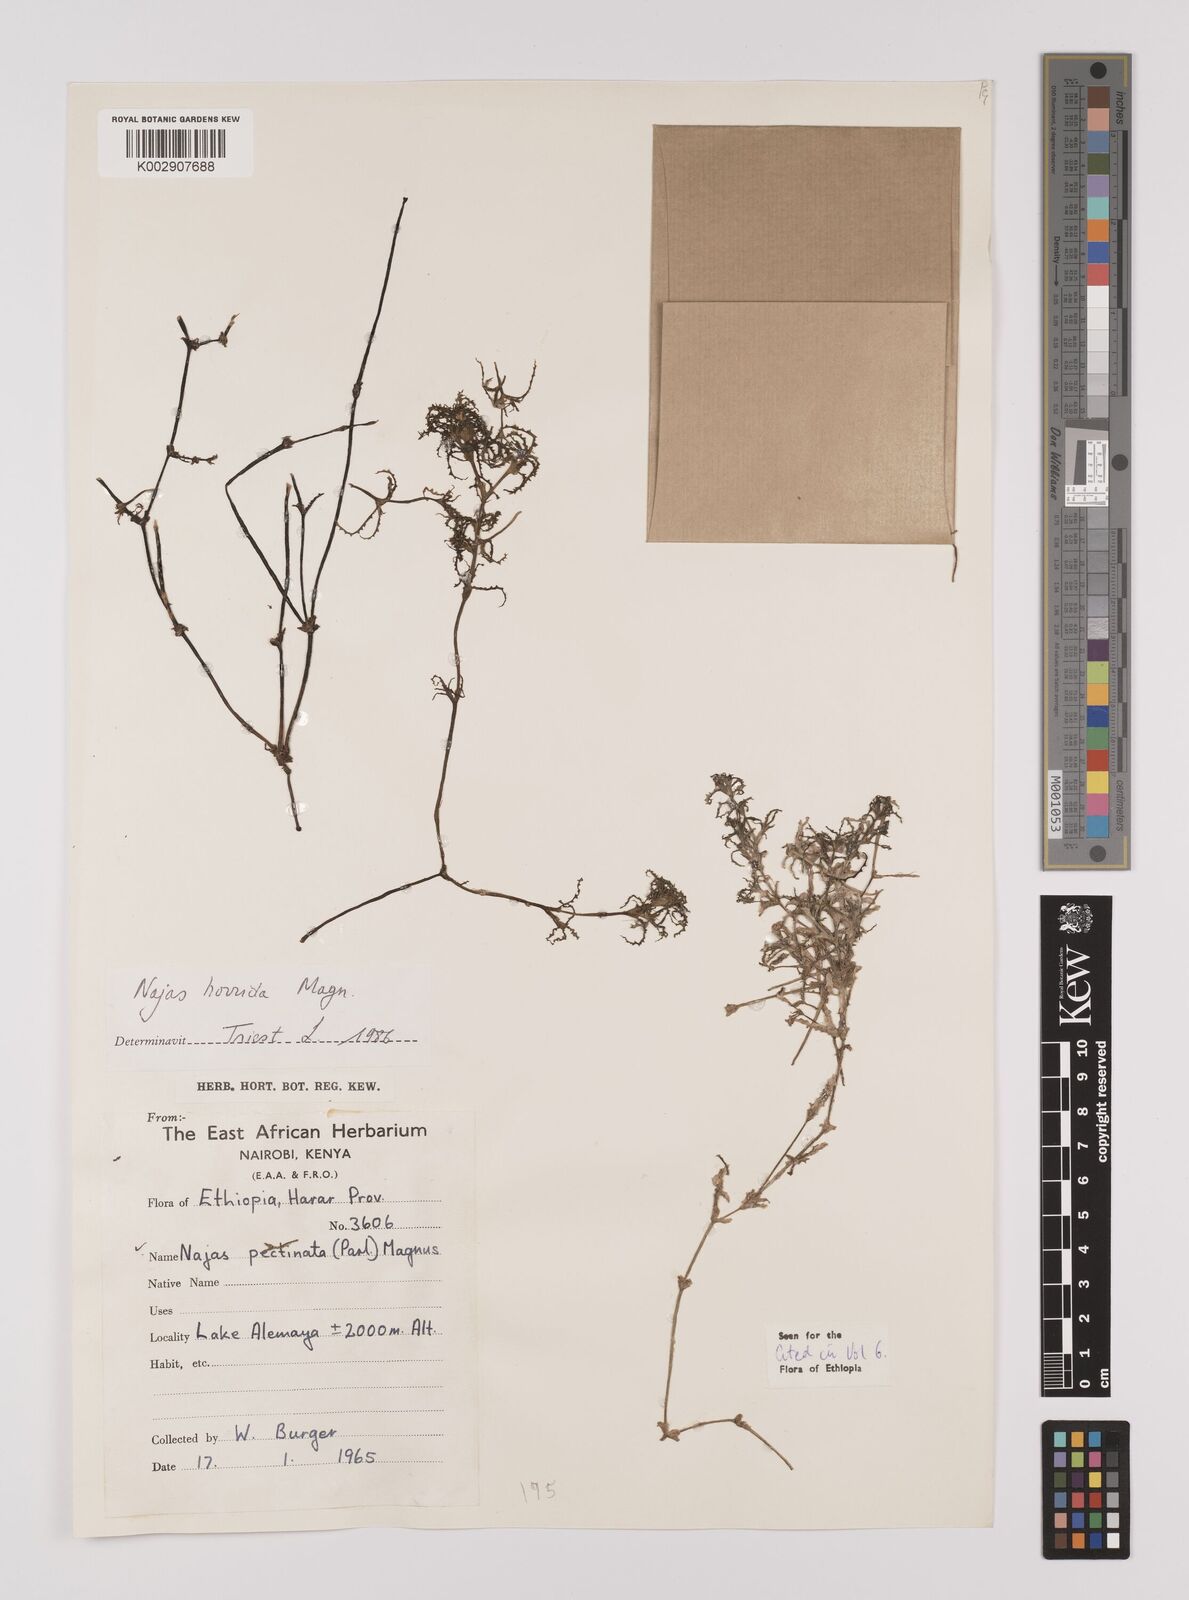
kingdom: Plantae
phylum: Tracheophyta
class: Liliopsida
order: Alismatales
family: Hydrocharitaceae
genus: Najas
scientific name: Najas horrida
